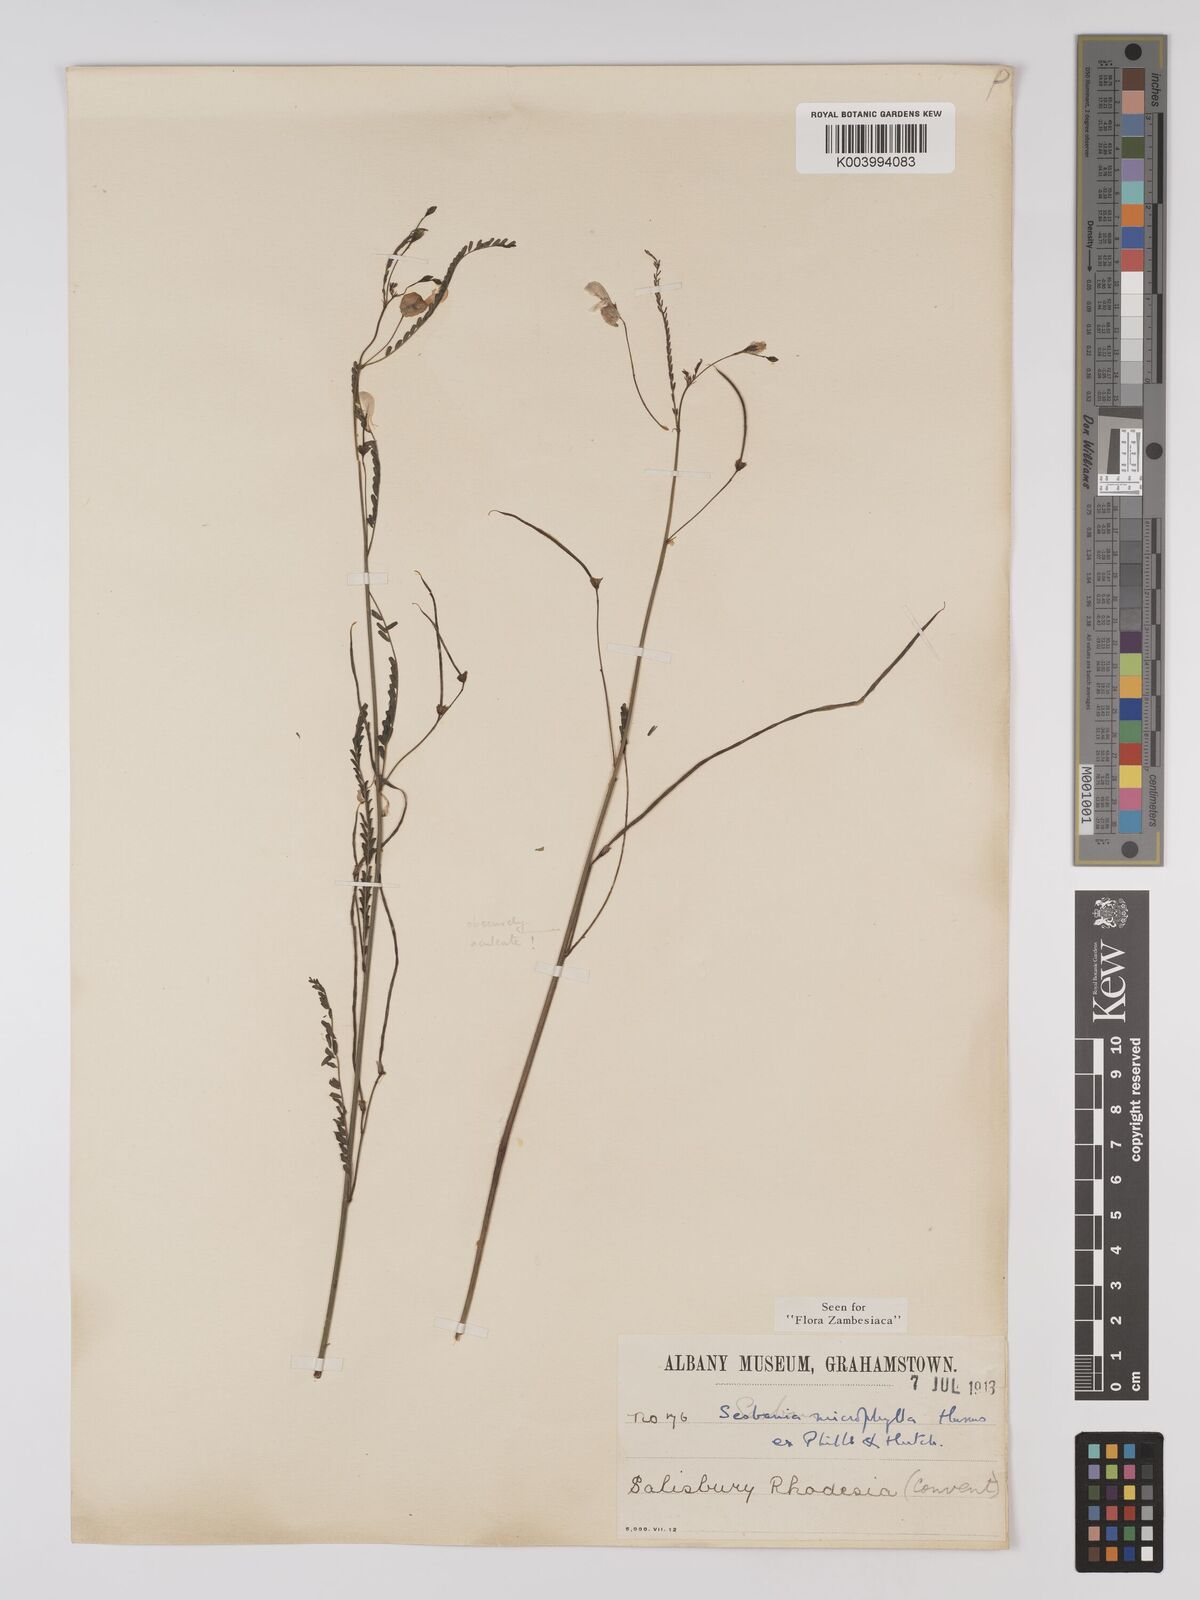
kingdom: Plantae
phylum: Tracheophyta
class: Magnoliopsida
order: Fabales
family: Fabaceae
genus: Sesbania
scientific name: Sesbania microphylla
